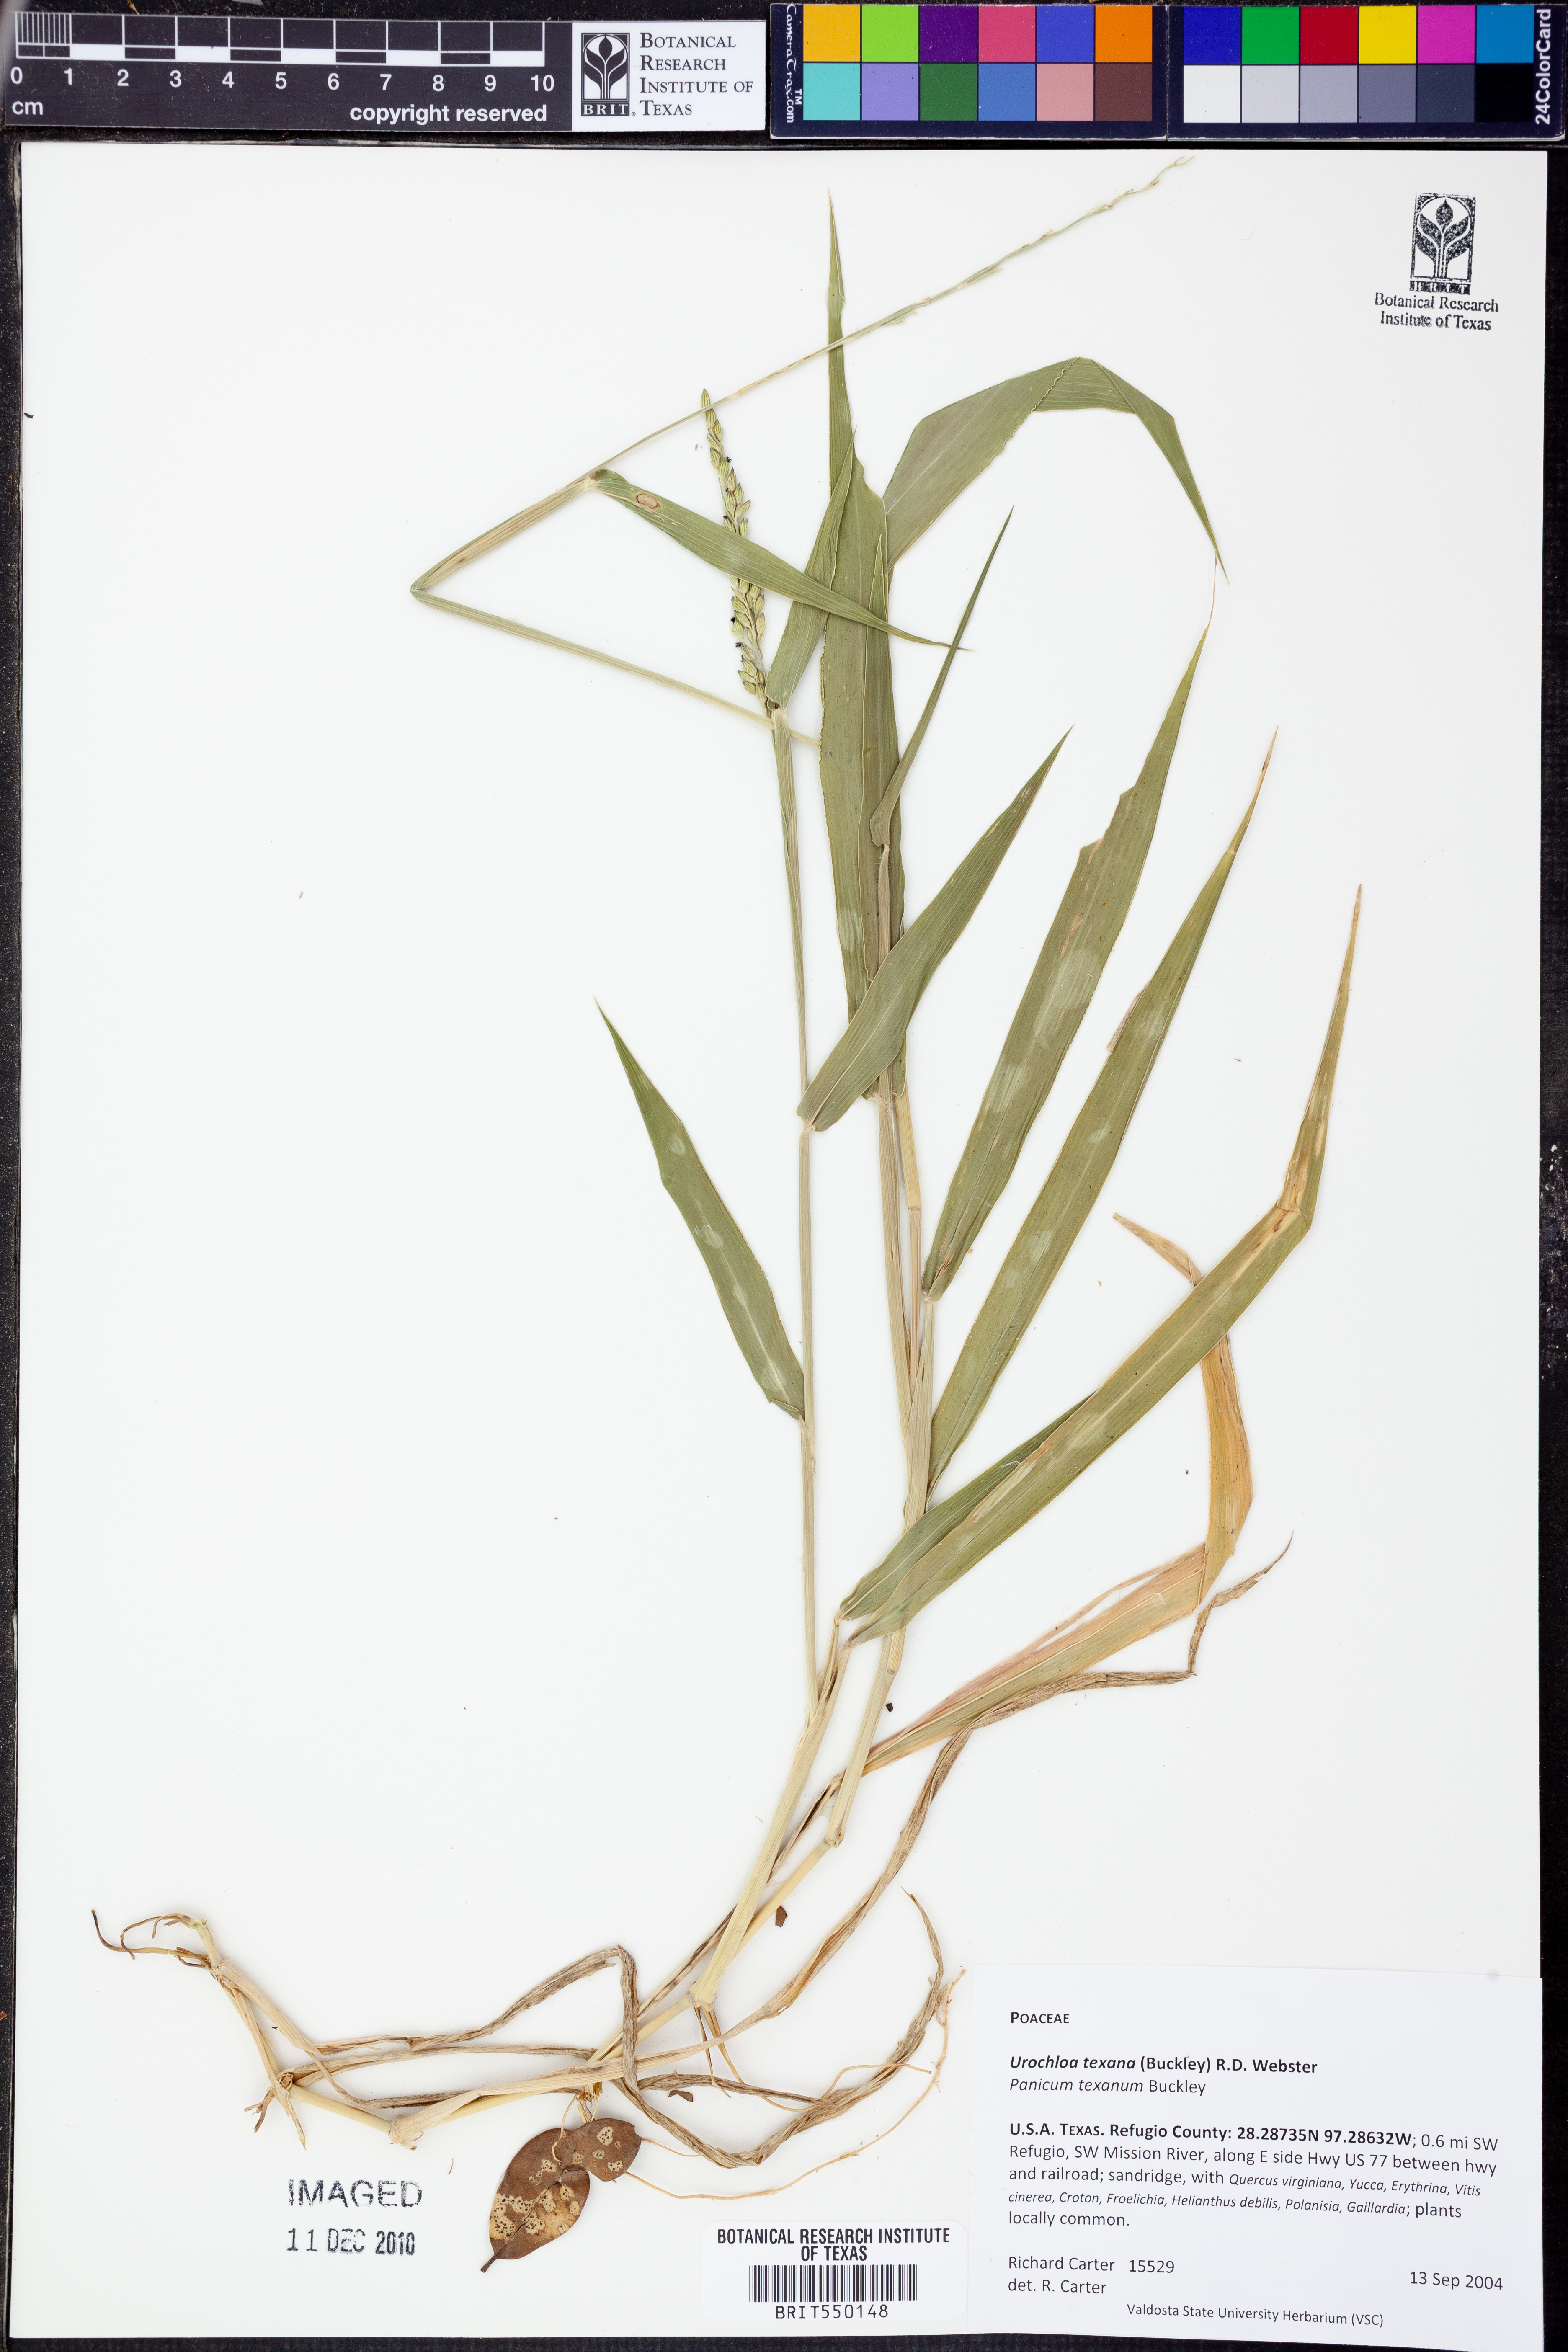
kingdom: Plantae
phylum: Tracheophyta
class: Liliopsida
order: Poales
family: Poaceae
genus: Urochloa
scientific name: Urochloa texana
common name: Texas millet
